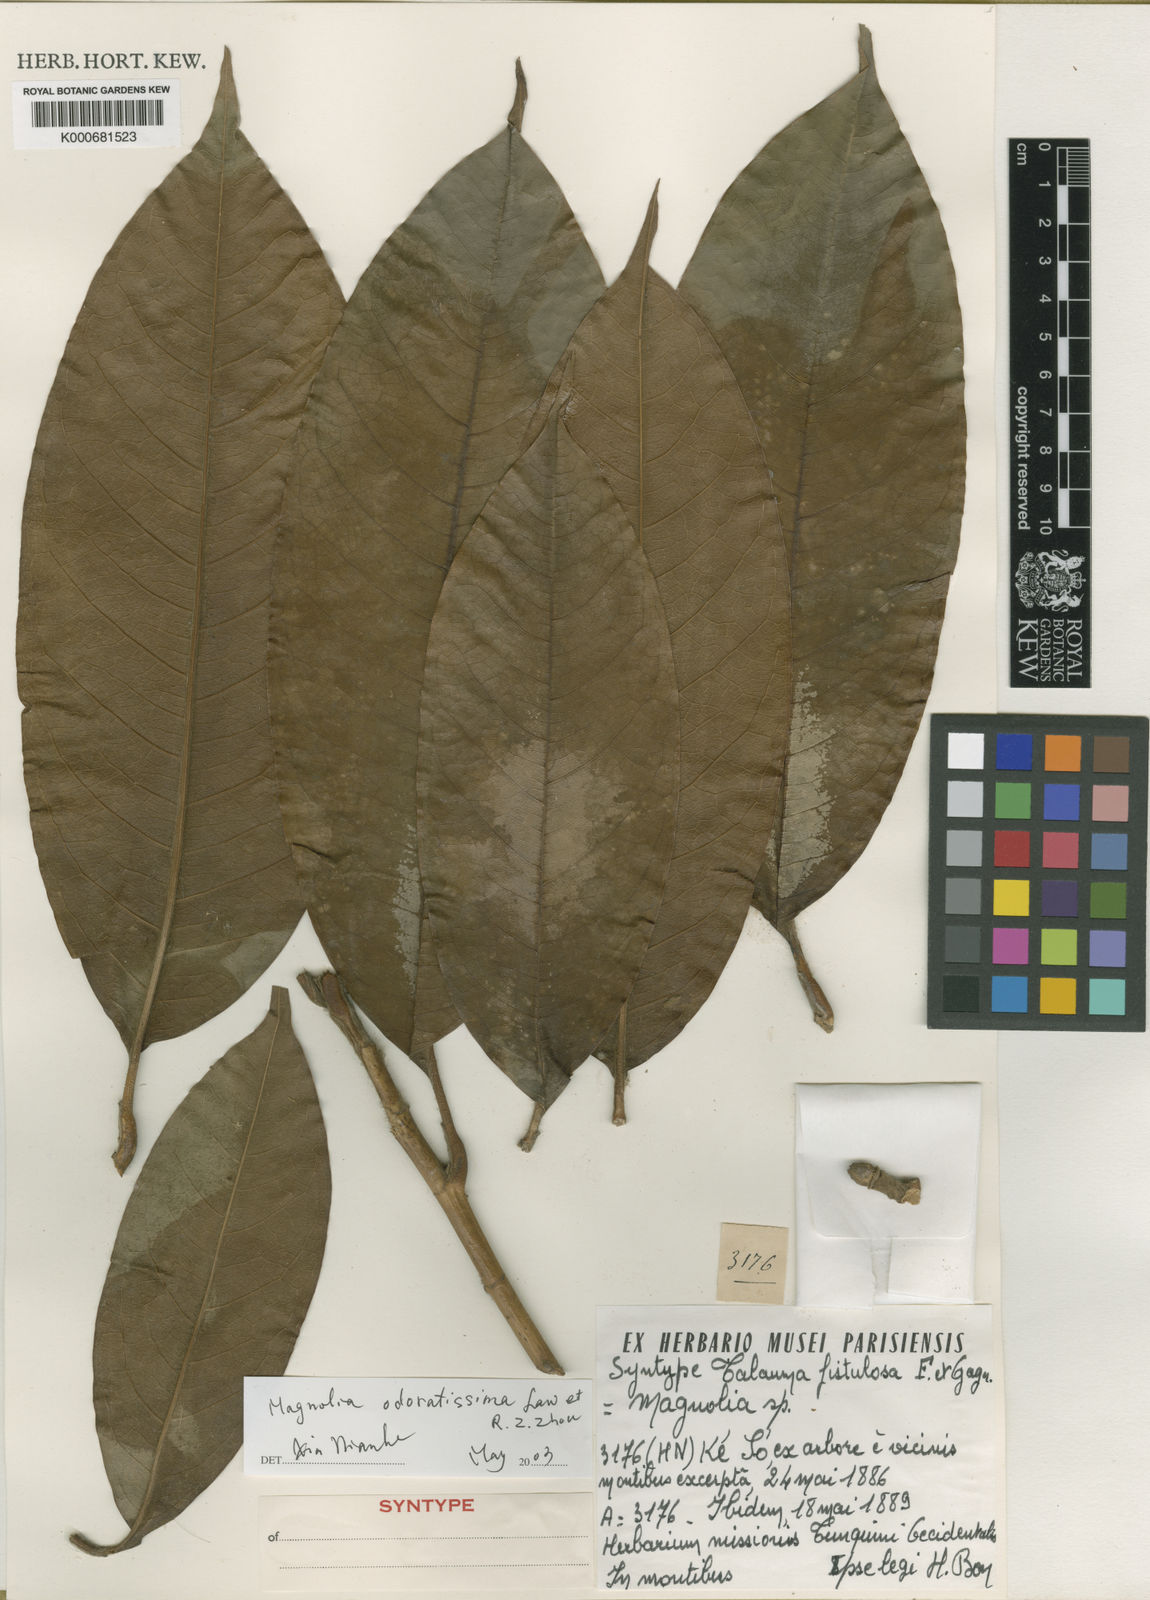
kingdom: Plantae
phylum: Tracheophyta
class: Magnoliopsida
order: Magnoliales
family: Magnoliaceae
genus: Magnolia
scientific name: Magnolia championii
